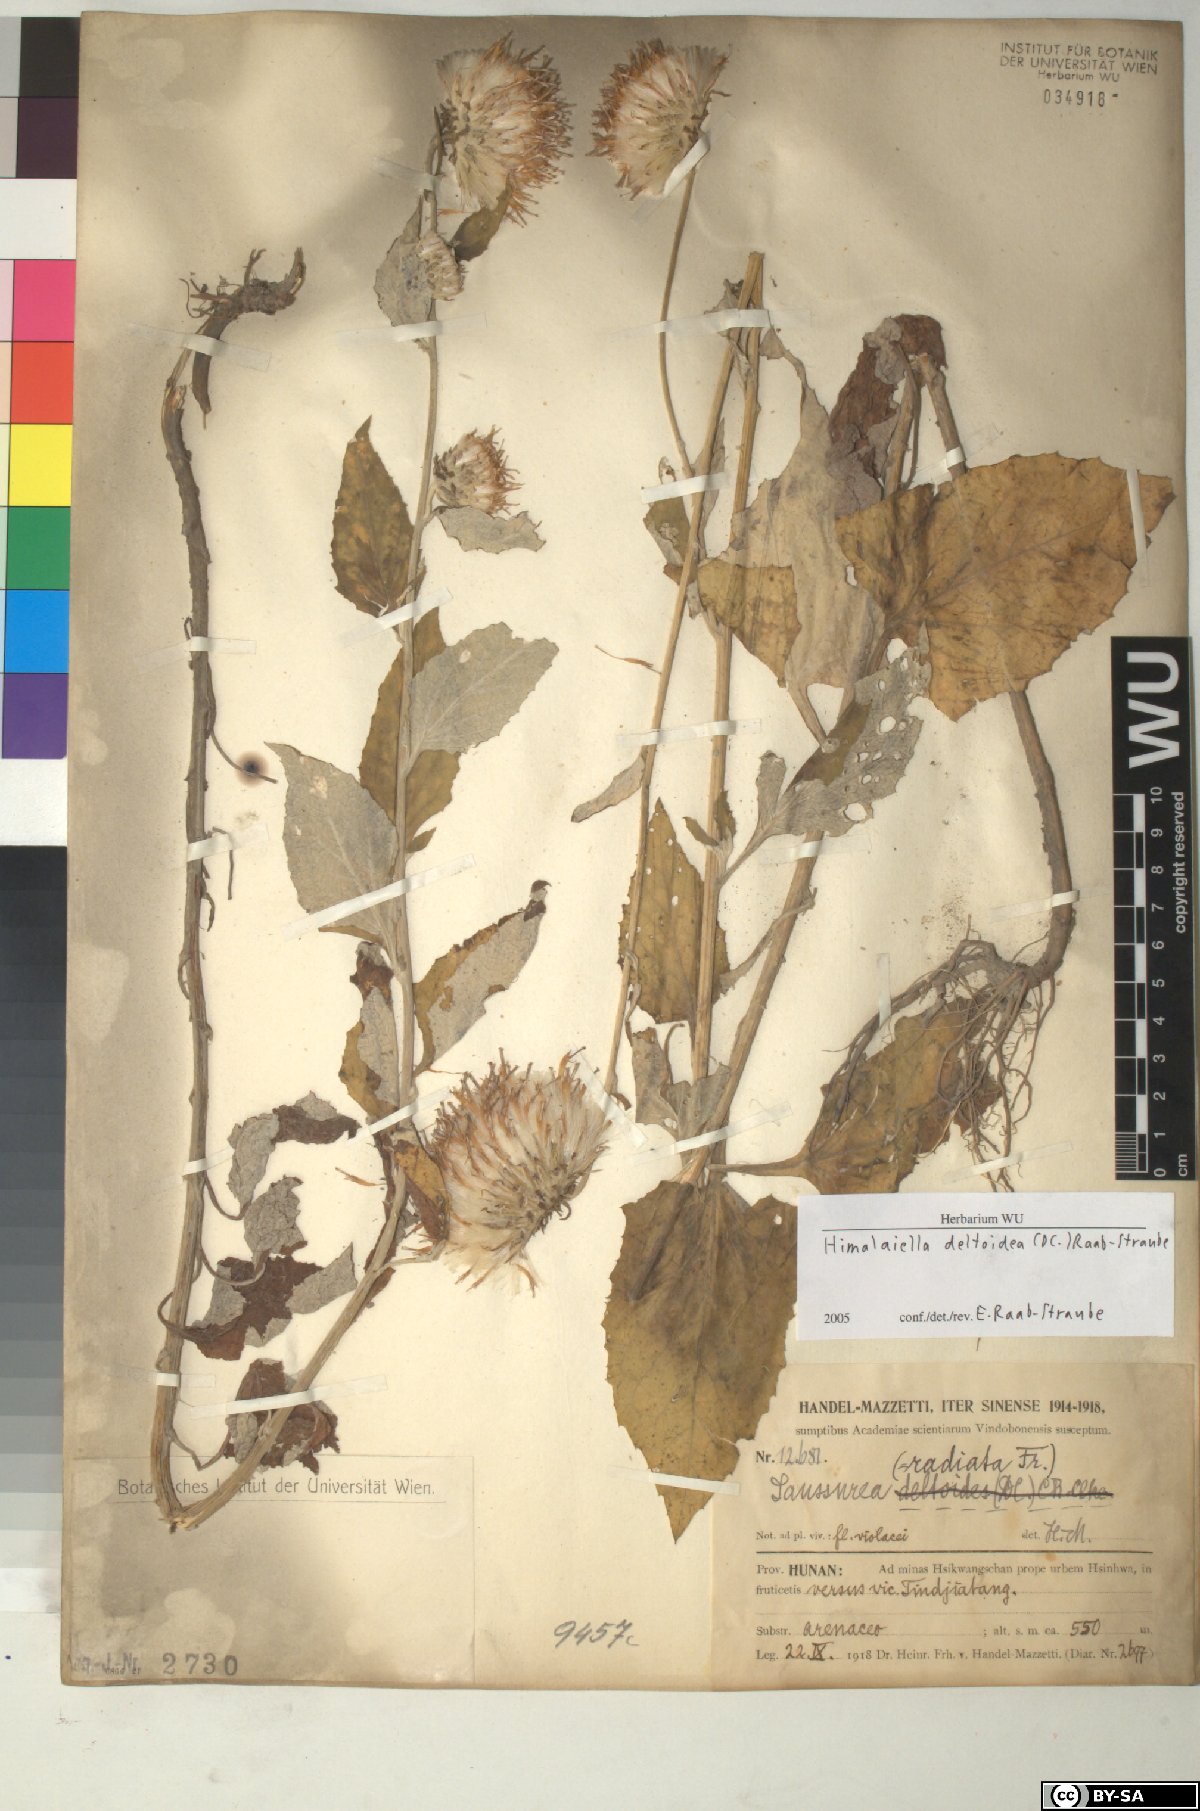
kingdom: Plantae
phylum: Tracheophyta
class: Magnoliopsida
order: Asterales
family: Asteraceae
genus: Jurinea
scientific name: Jurinea deltoidea
